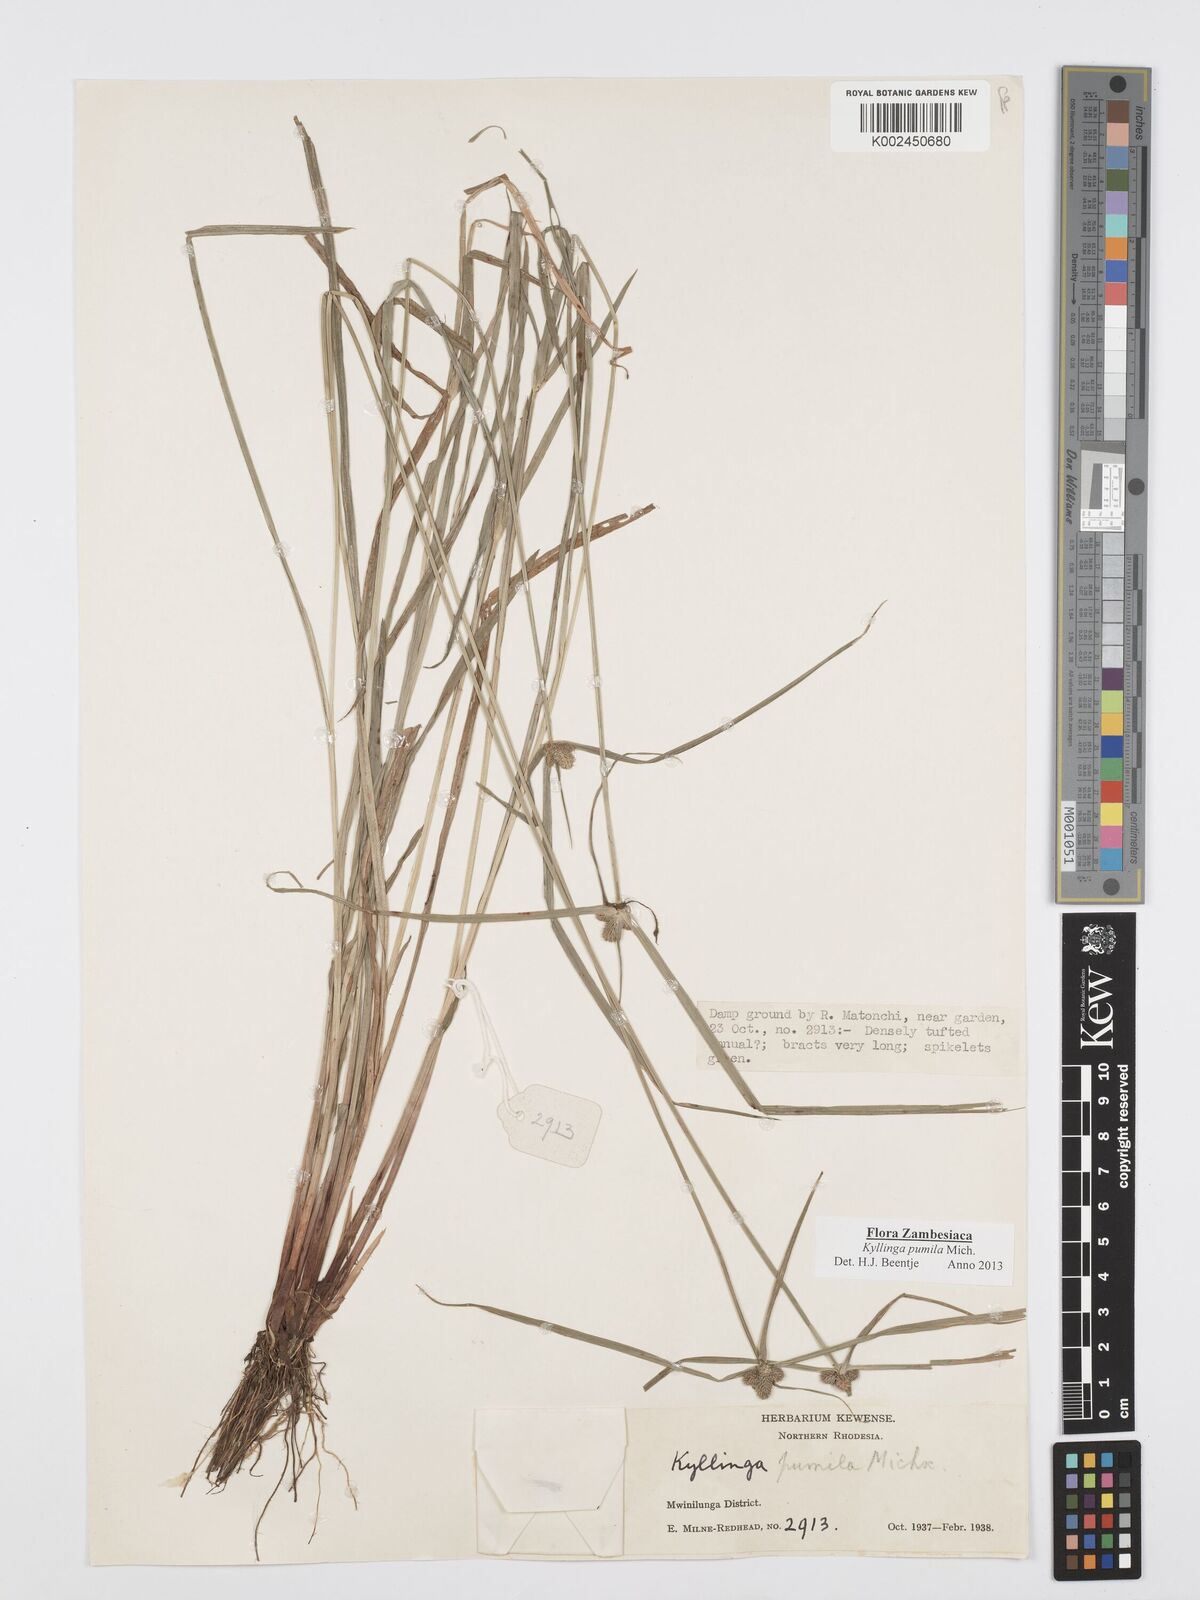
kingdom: Plantae
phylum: Tracheophyta
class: Liliopsida
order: Poales
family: Cyperaceae
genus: Cyperus
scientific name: Cyperus pumilus
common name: Low flatsedge
